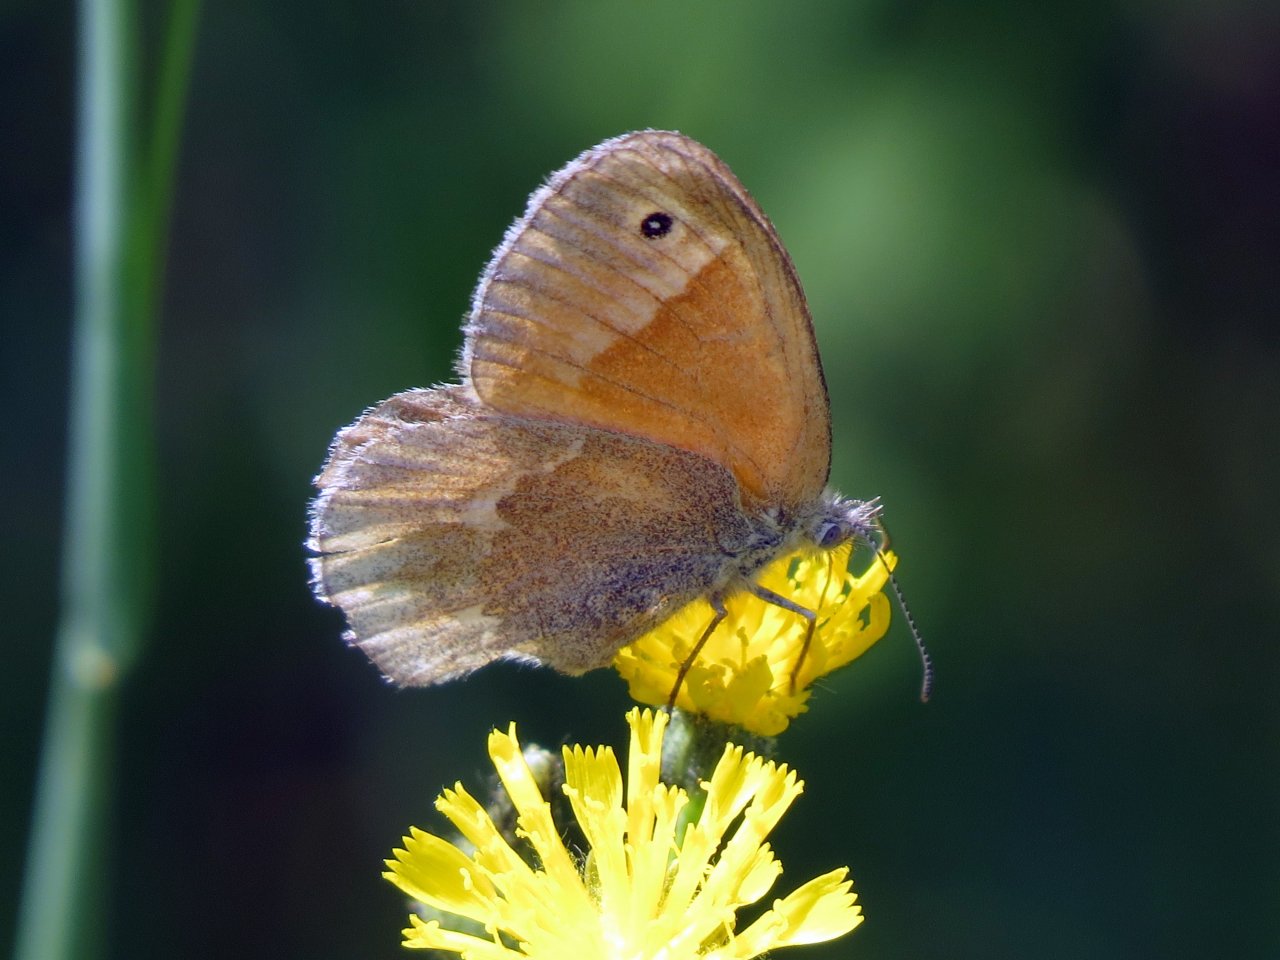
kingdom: Animalia
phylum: Arthropoda
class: Insecta
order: Lepidoptera
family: Nymphalidae
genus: Coenonympha
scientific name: Coenonympha tullia
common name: Large Heath
